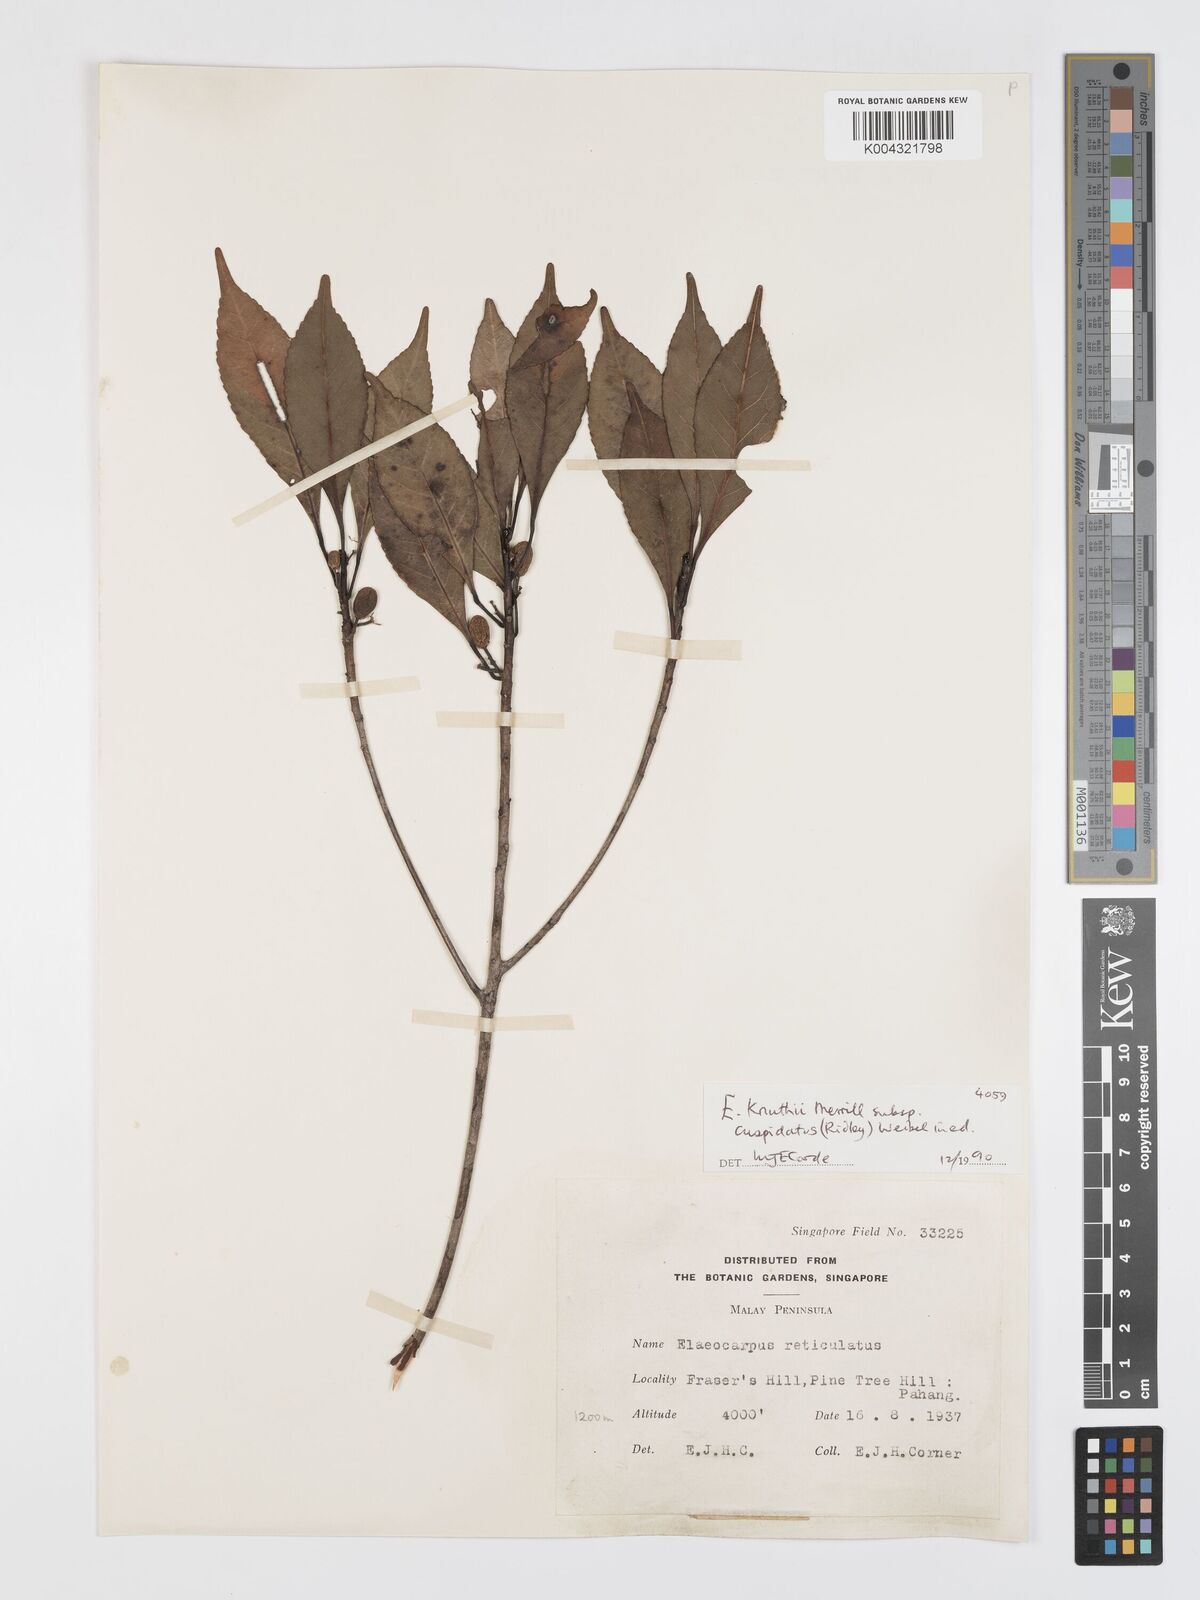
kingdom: Plantae
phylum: Tracheophyta
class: Magnoliopsida
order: Oxalidales
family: Elaeocarpaceae
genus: Elaeocarpus
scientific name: Elaeocarpus knuthii
